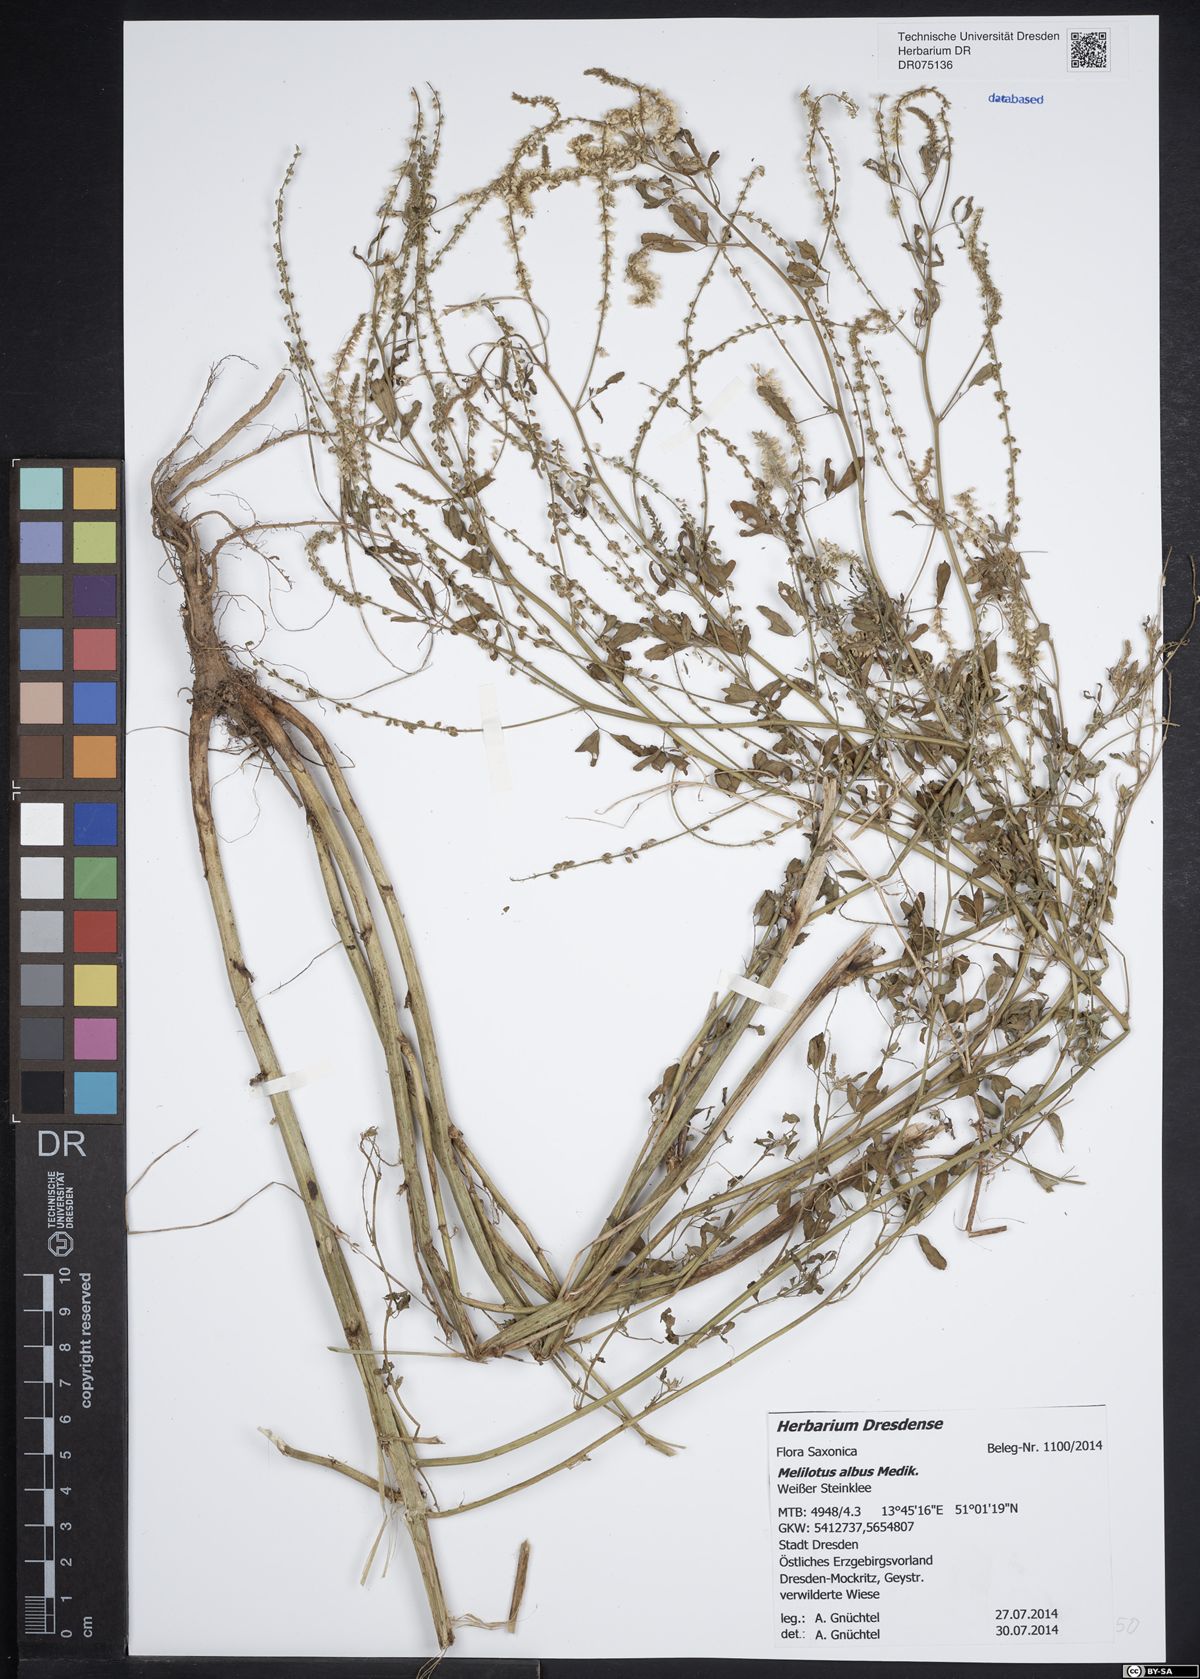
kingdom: Plantae
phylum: Tracheophyta
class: Magnoliopsida
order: Fabales
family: Fabaceae
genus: Melilotus
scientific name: Melilotus albus
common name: White melilot
